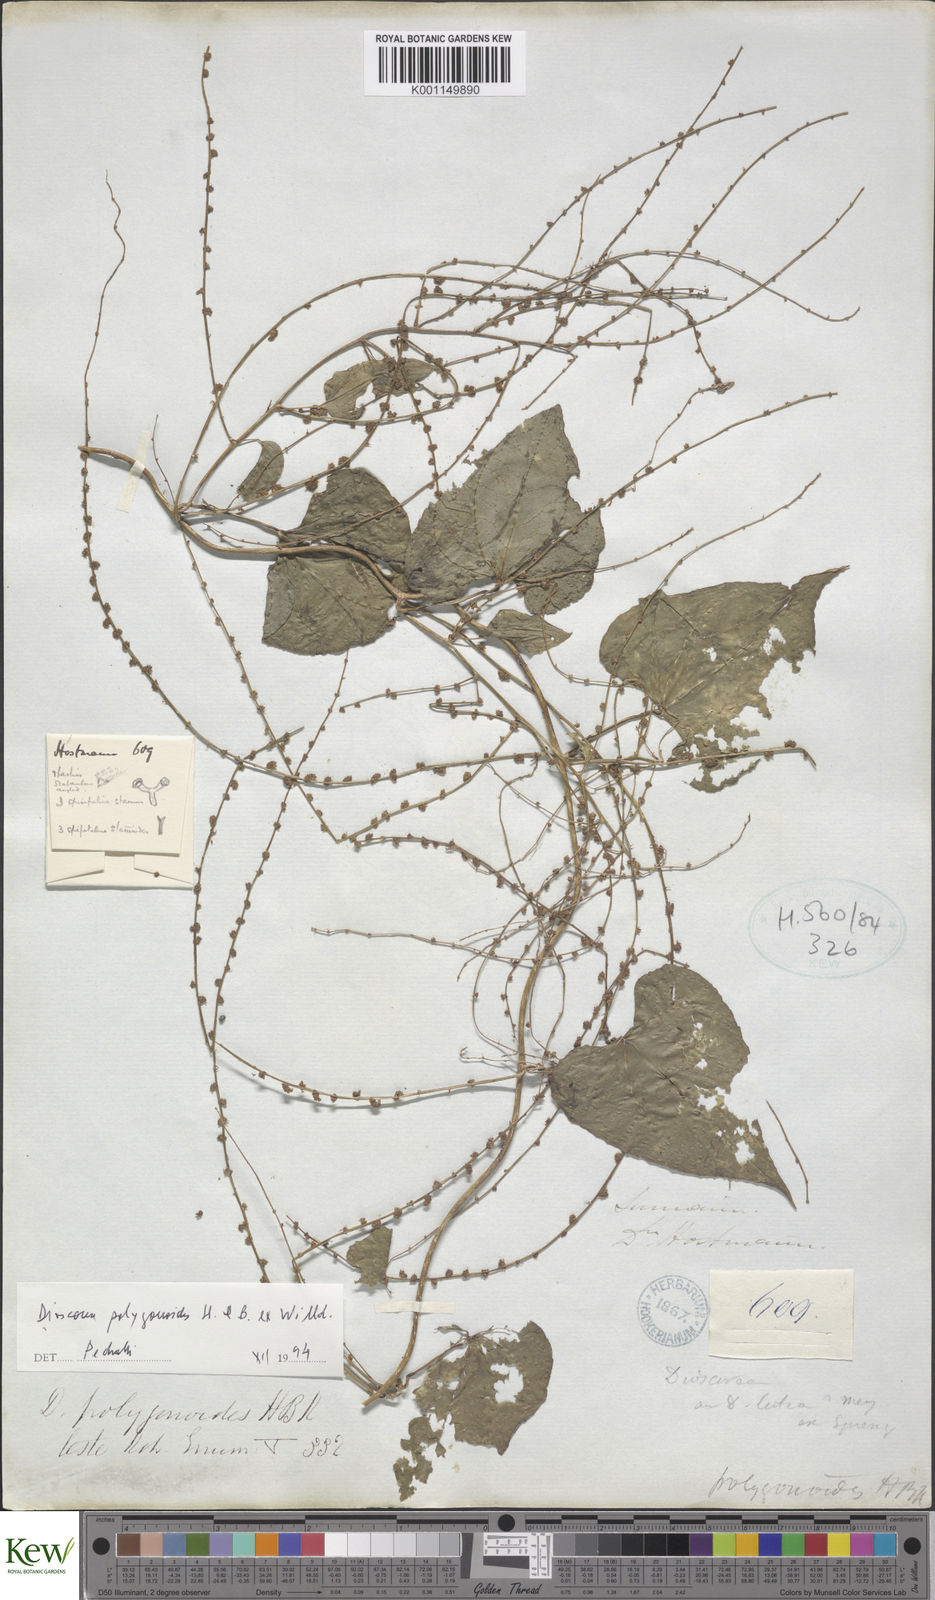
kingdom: Plantae
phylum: Tracheophyta
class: Liliopsida
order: Dioscoreales
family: Dioscoreaceae
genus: Dioscorea
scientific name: Dioscorea polygonoides
